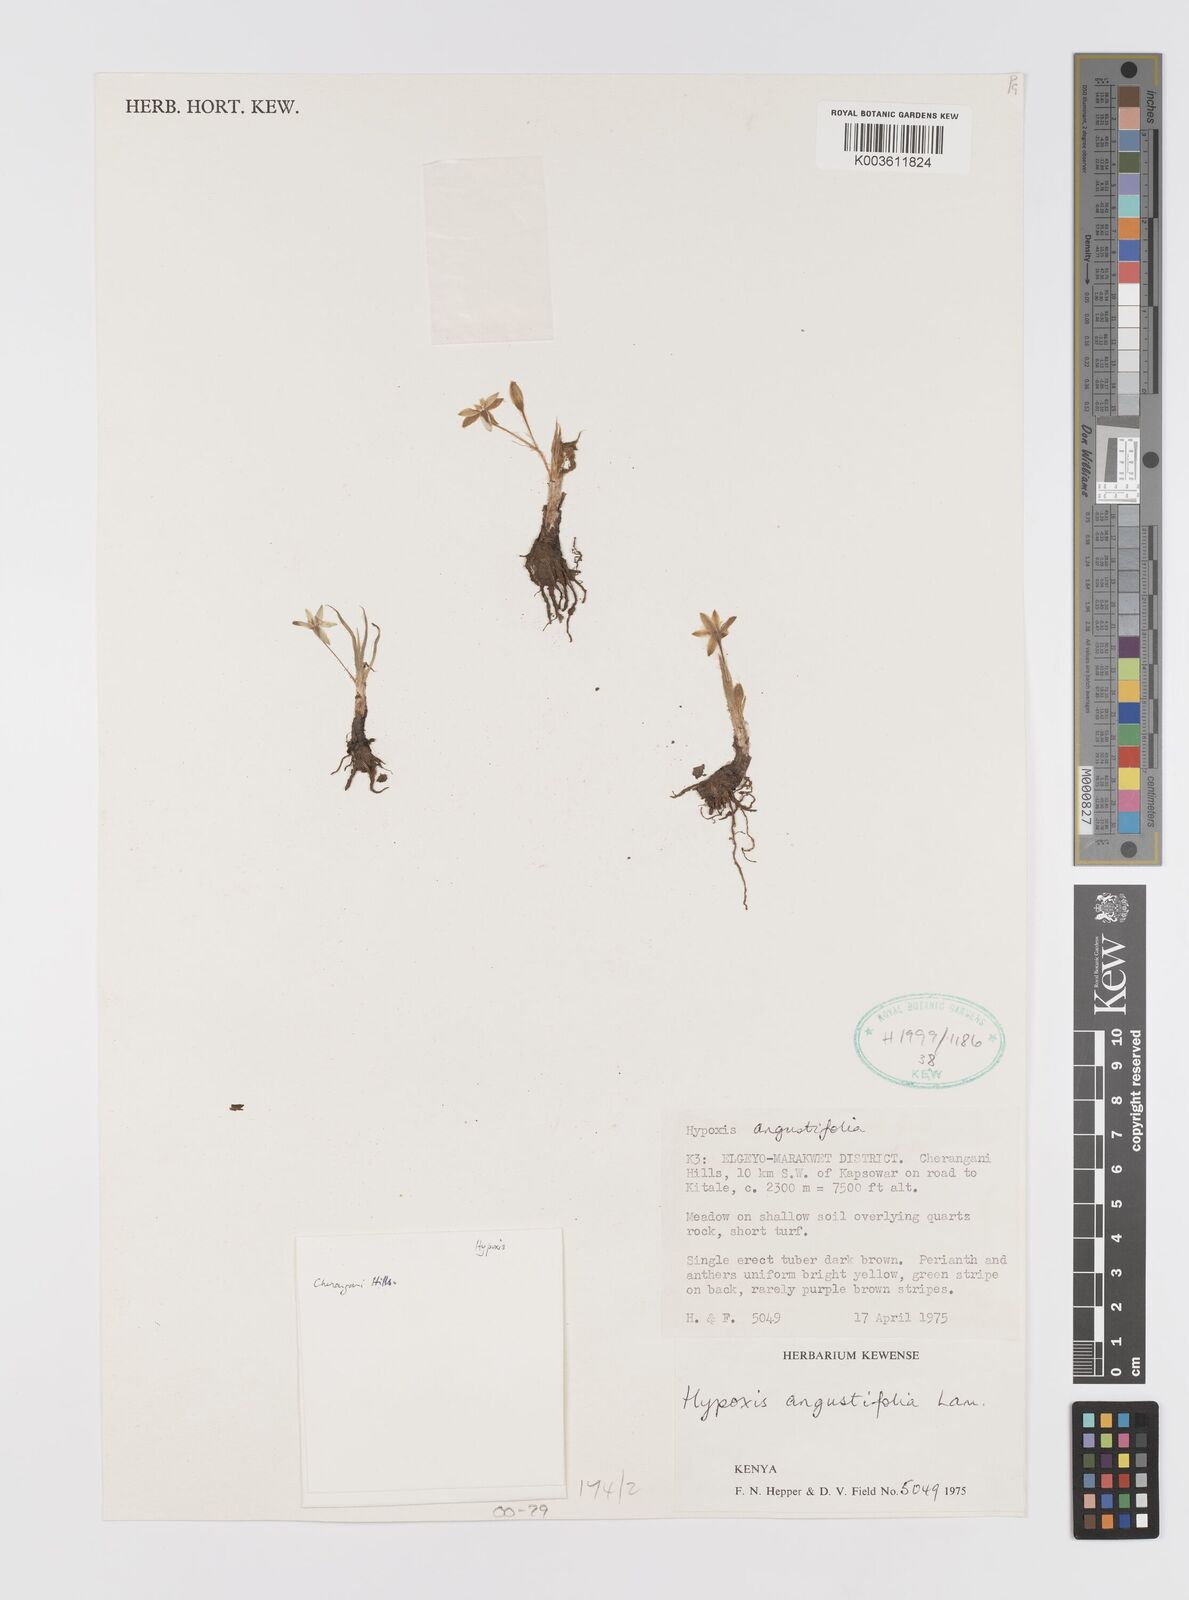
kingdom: Plantae
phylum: Tracheophyta
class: Liliopsida
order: Asparagales
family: Hypoxidaceae
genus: Hypoxis
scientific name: Hypoxis angustifolia
